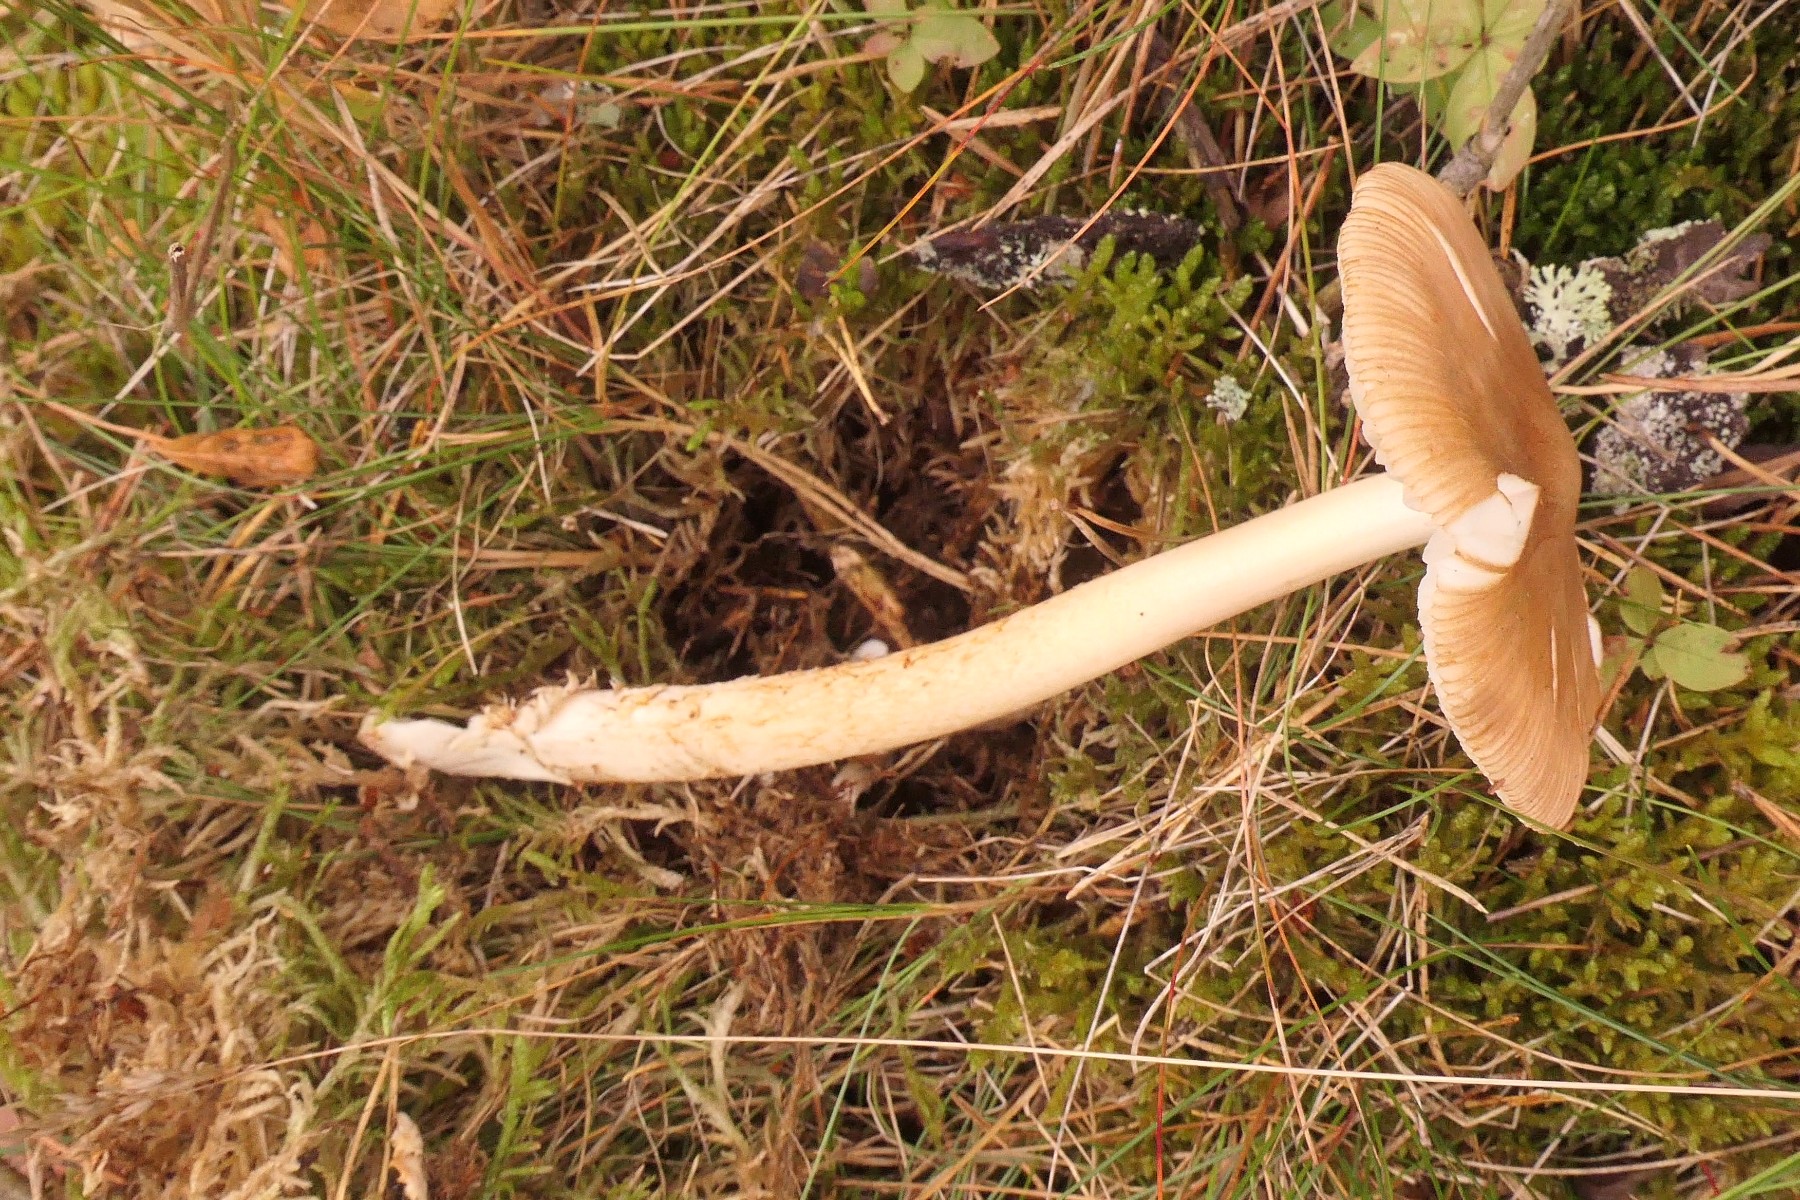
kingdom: Fungi
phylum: Basidiomycota
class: Agaricomycetes
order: Agaricales
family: Amanitaceae
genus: Amanita
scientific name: Amanita fulva
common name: brun kam-fluesvamp
